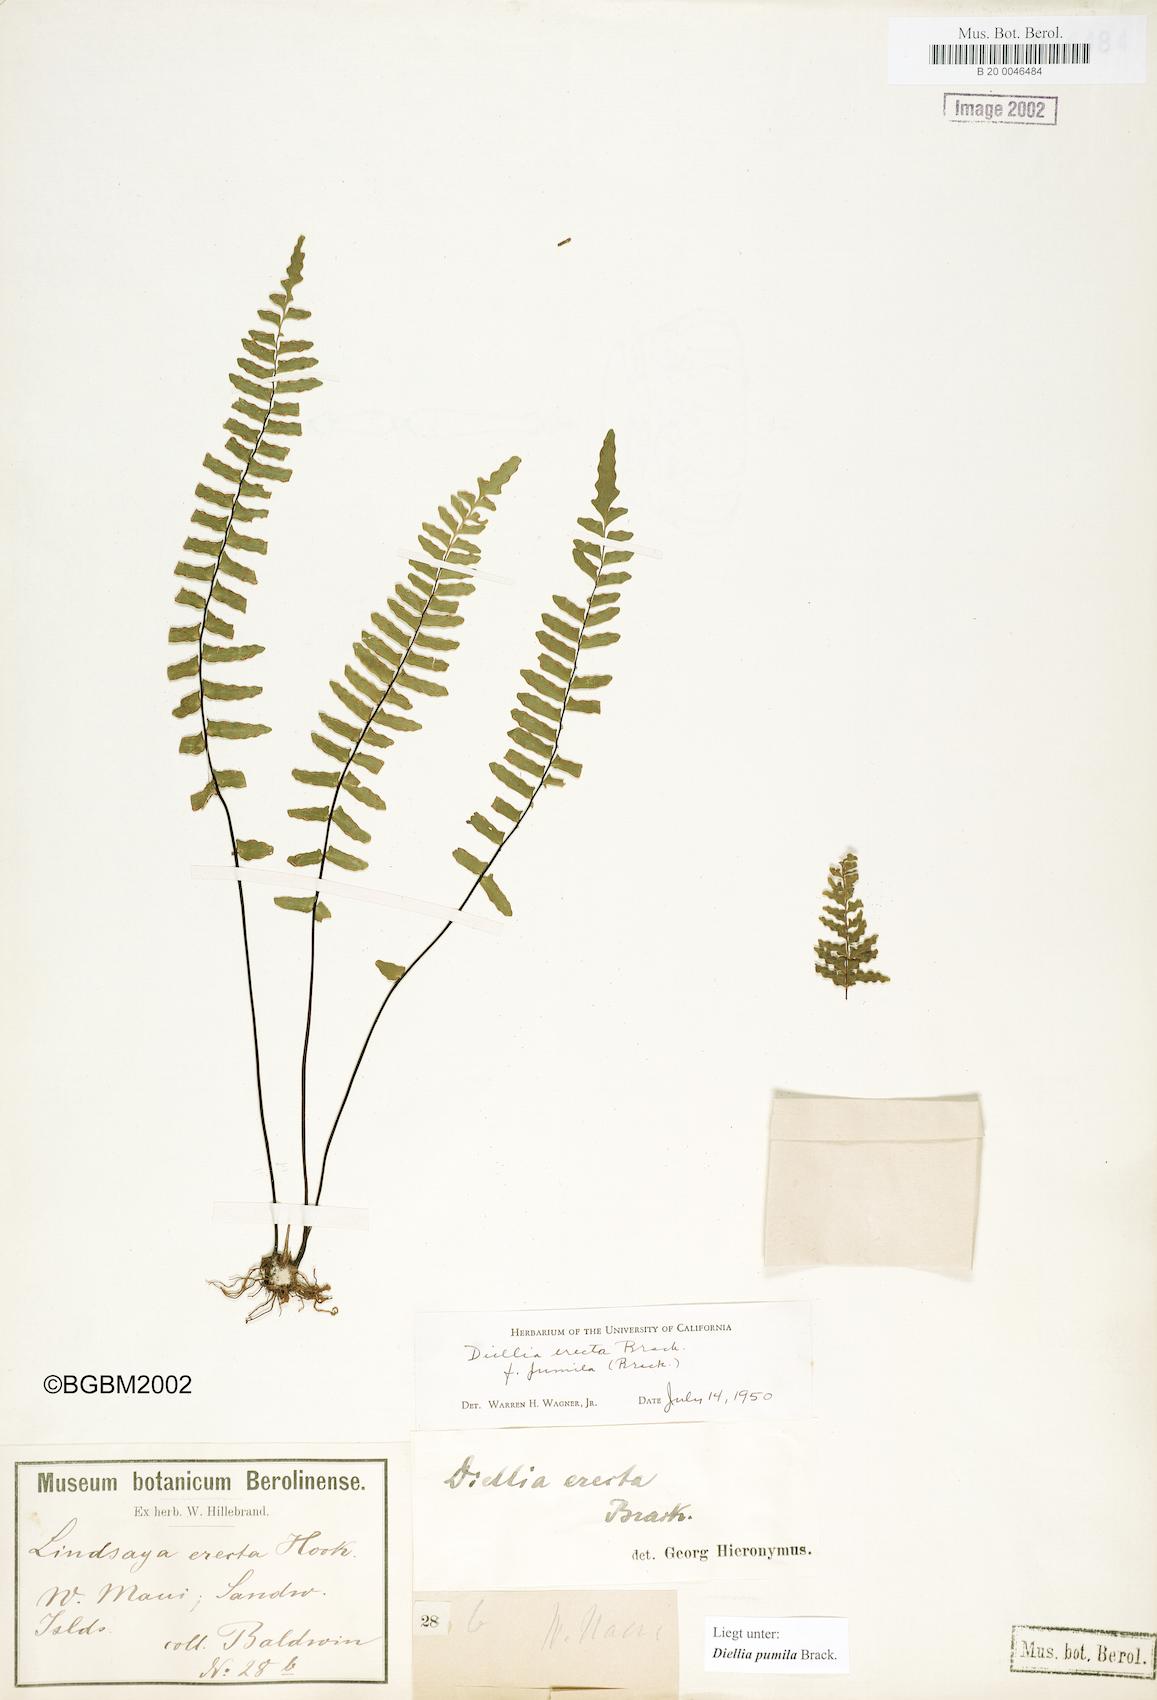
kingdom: Plantae
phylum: Tracheophyta
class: Polypodiopsida
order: Polypodiales
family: Aspleniaceae
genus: Asplenium
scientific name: Asplenium dielerectum
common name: Erect island spleenwort
